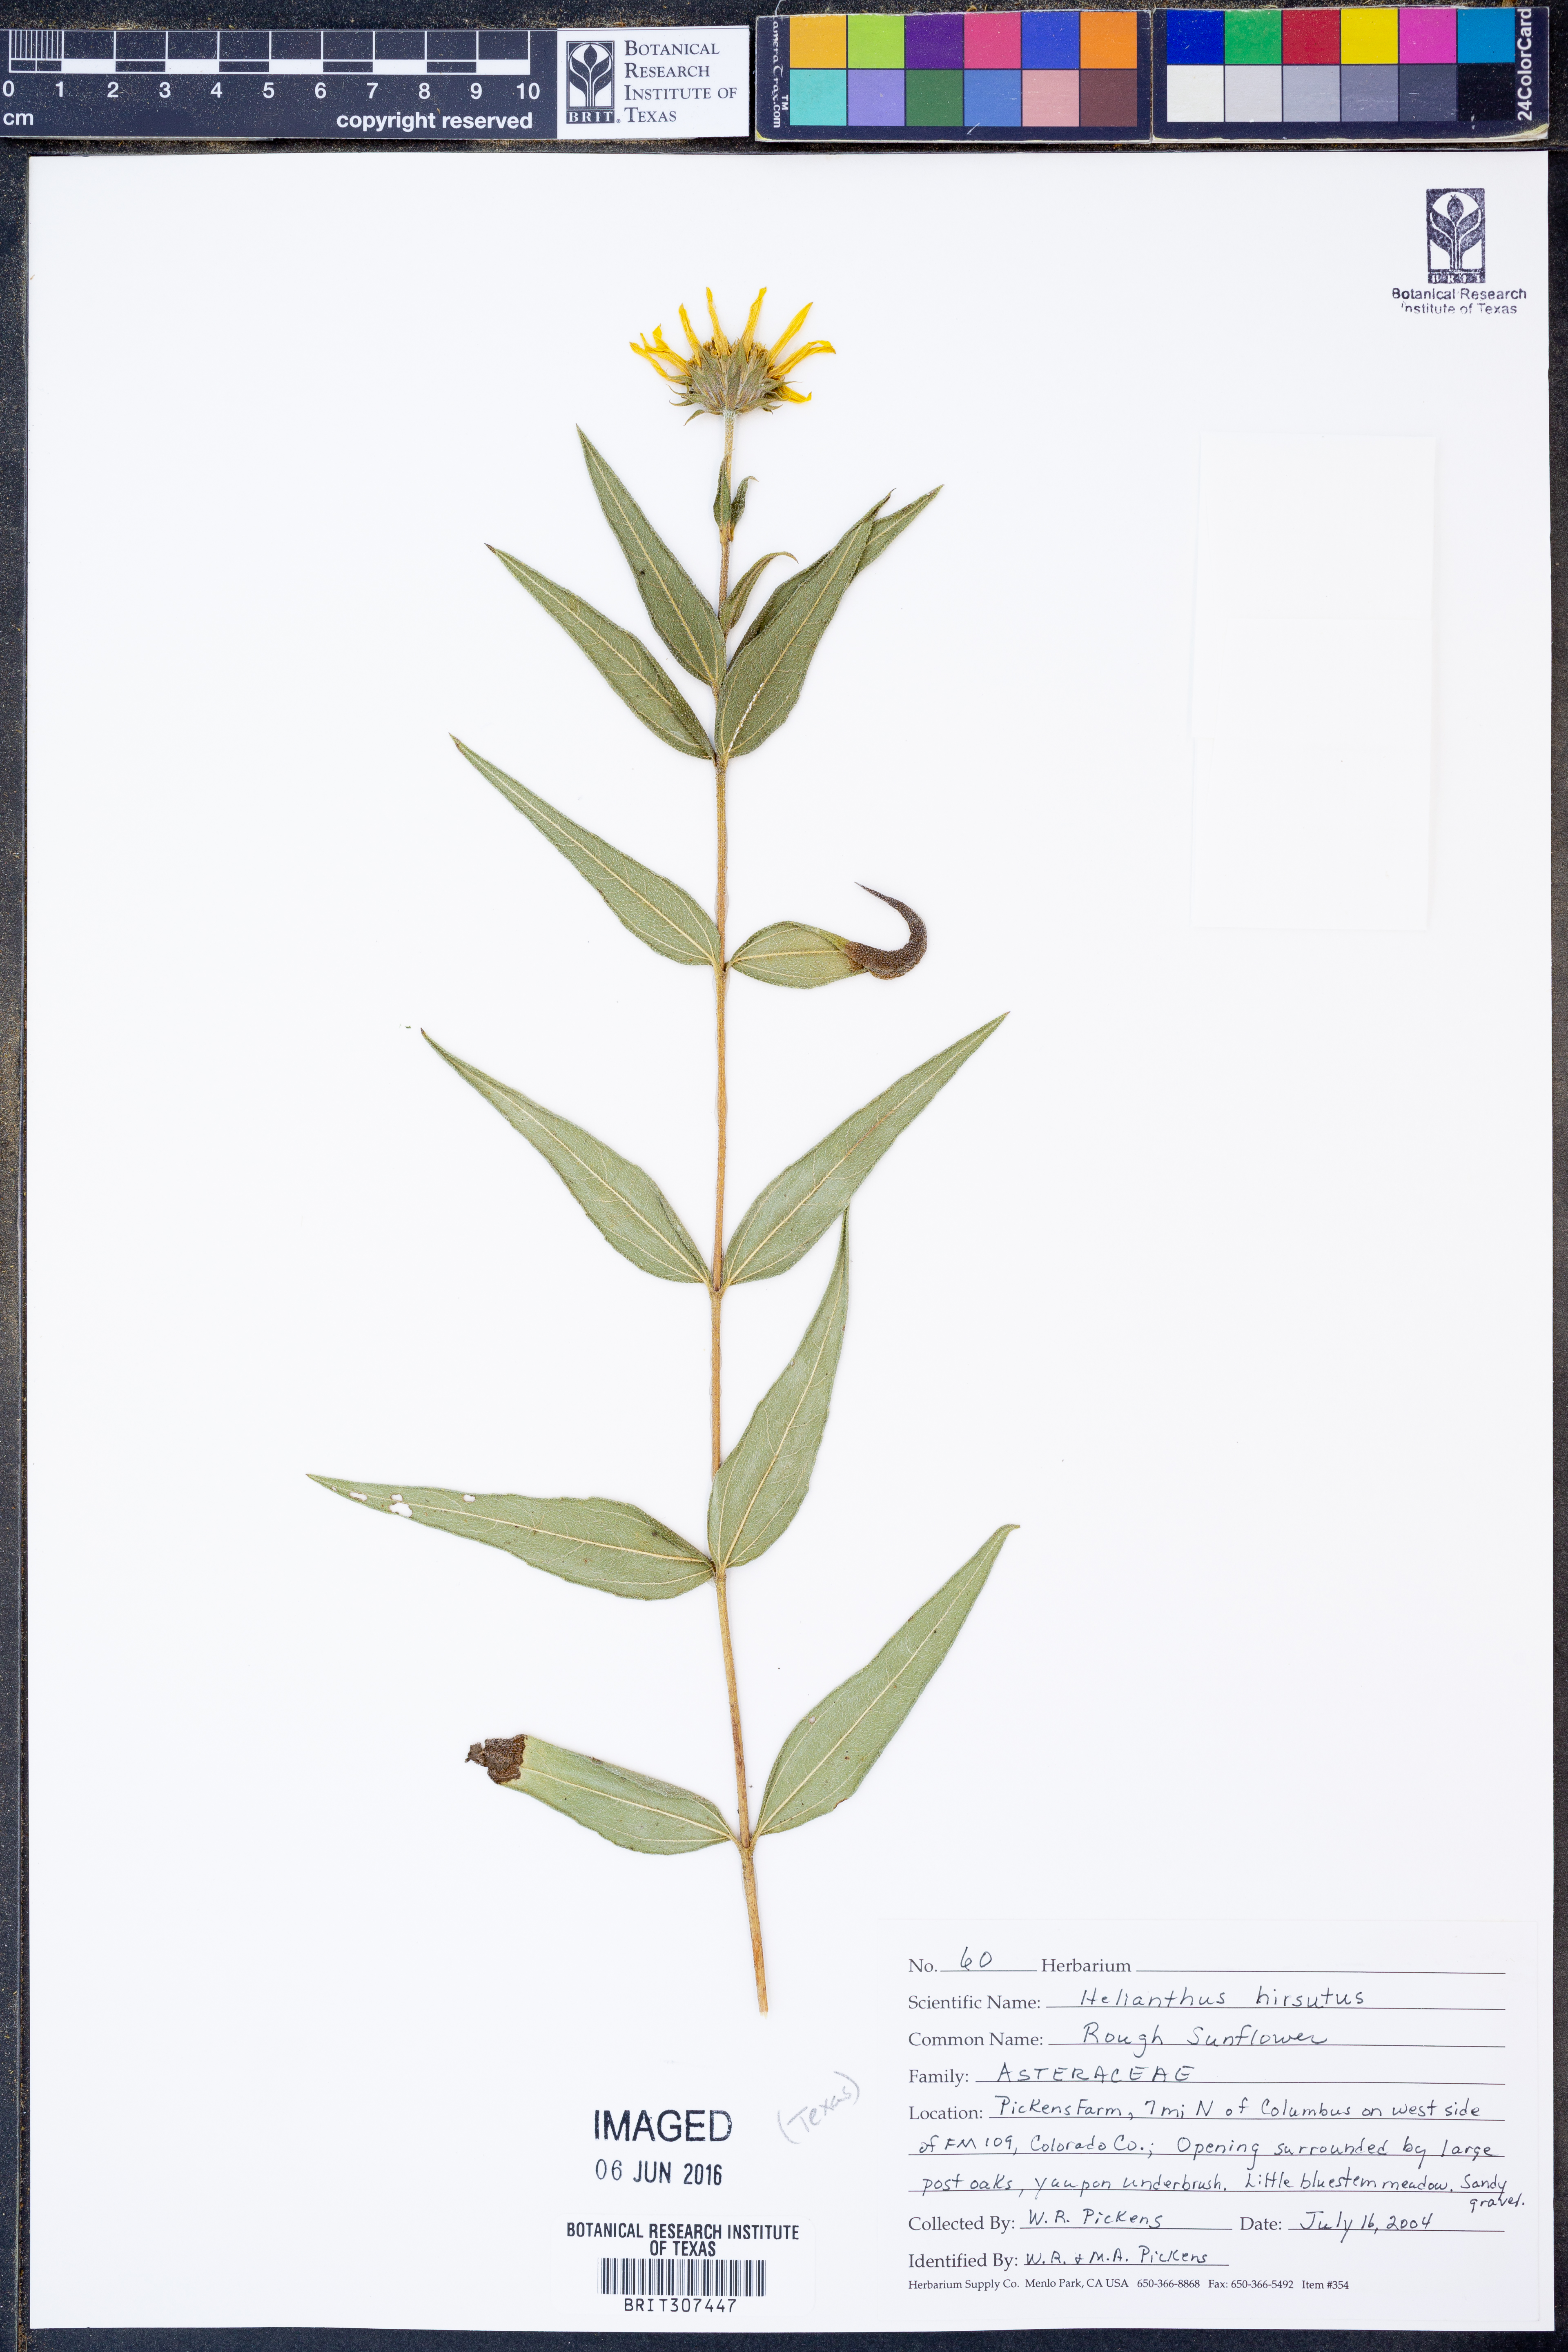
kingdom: Plantae
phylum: Tracheophyta
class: Magnoliopsida
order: Asterales
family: Asteraceae
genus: Helianthus
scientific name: Helianthus hirsutus
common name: Hairy sunflower
